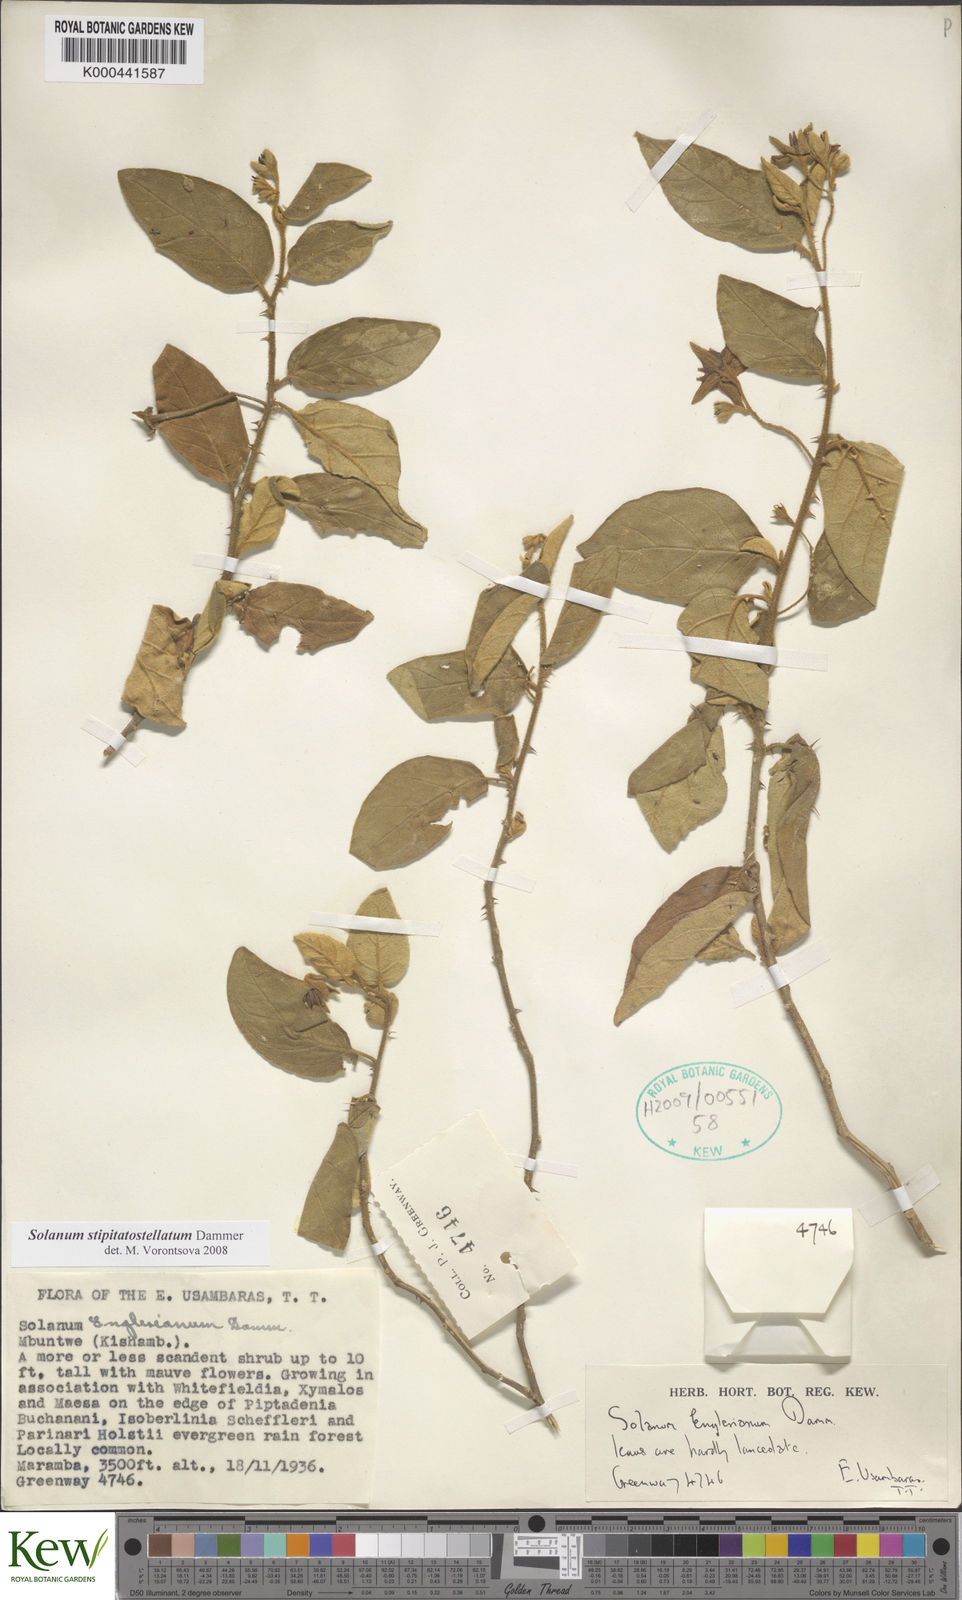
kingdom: Plantae
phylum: Tracheophyta
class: Magnoliopsida
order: Solanales
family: Solanaceae
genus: Solanum
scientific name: Solanum stipitatostellatum
